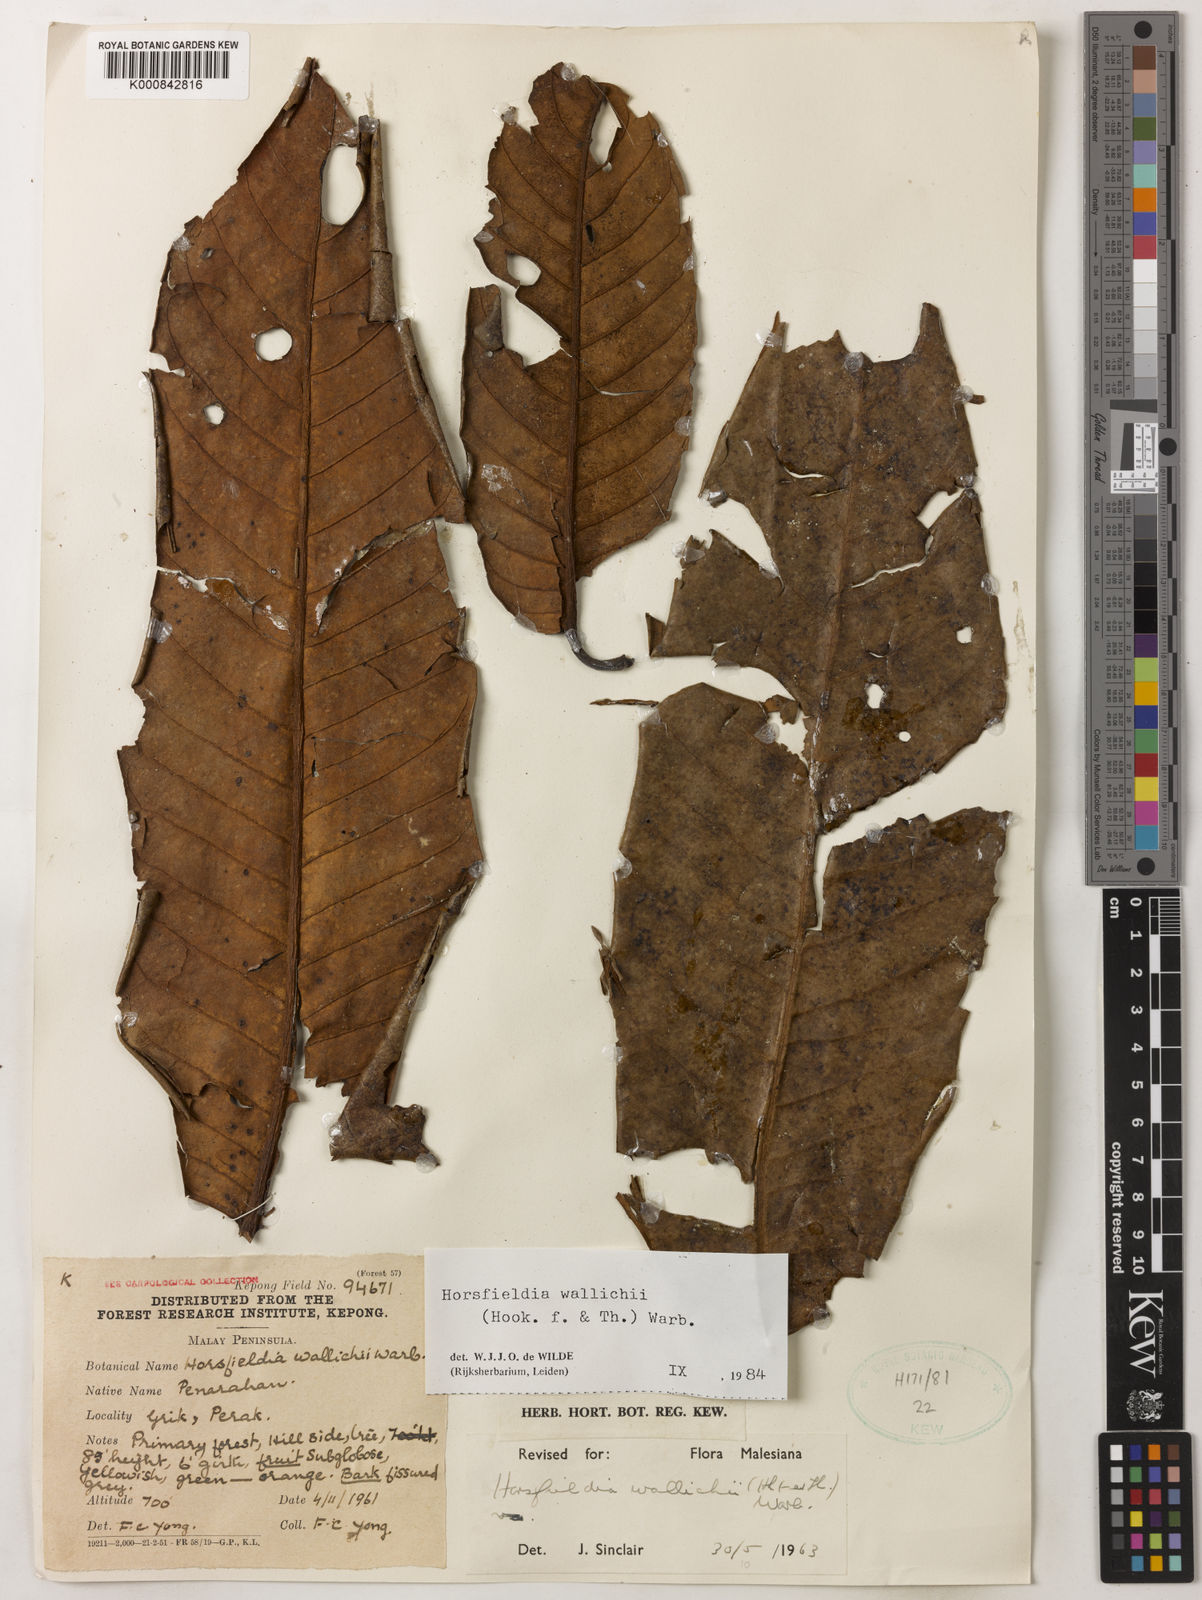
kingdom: Plantae
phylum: Tracheophyta
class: Magnoliopsida
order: Magnoliales
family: Myristicaceae
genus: Horsfieldia
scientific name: Horsfieldia wallichii
